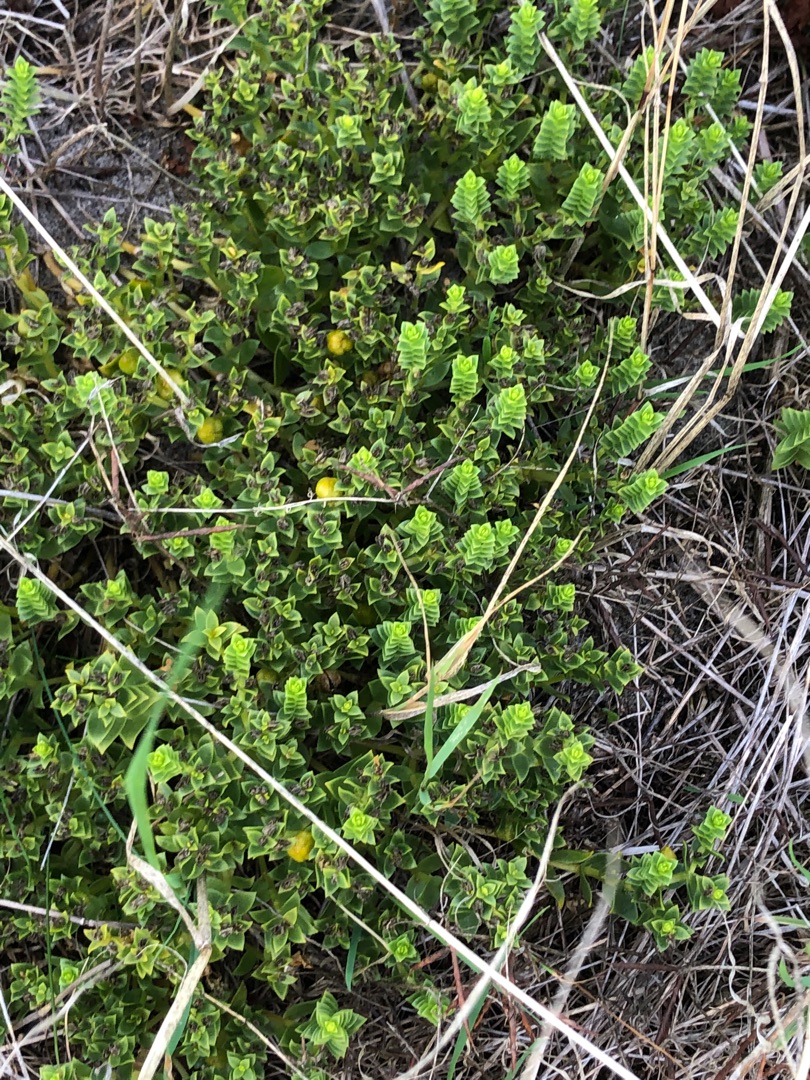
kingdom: Plantae
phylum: Tracheophyta
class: Magnoliopsida
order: Caryophyllales
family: Caryophyllaceae
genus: Honckenya
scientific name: Honckenya peploides
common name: Strandarve
